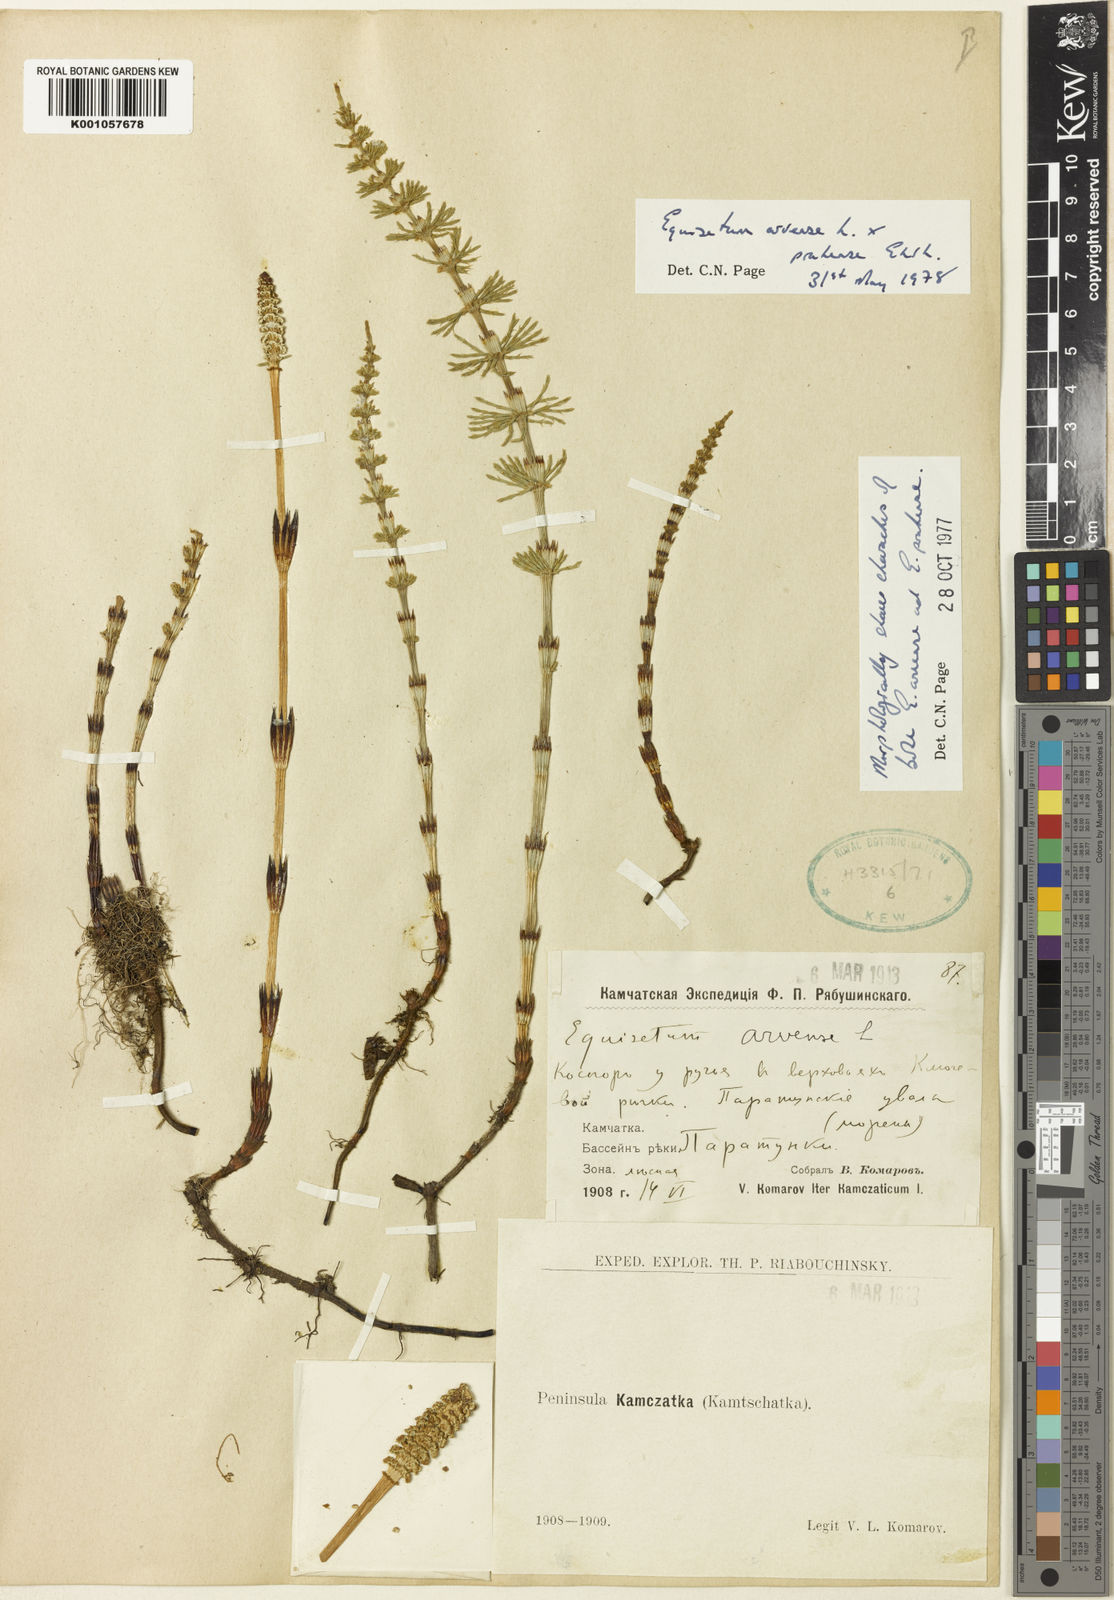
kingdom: Plantae
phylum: Tracheophyta
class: Polypodiopsida
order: Equisetales
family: Equisetaceae
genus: Equisetum
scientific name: Equisetum arvense
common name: Field horsetail
